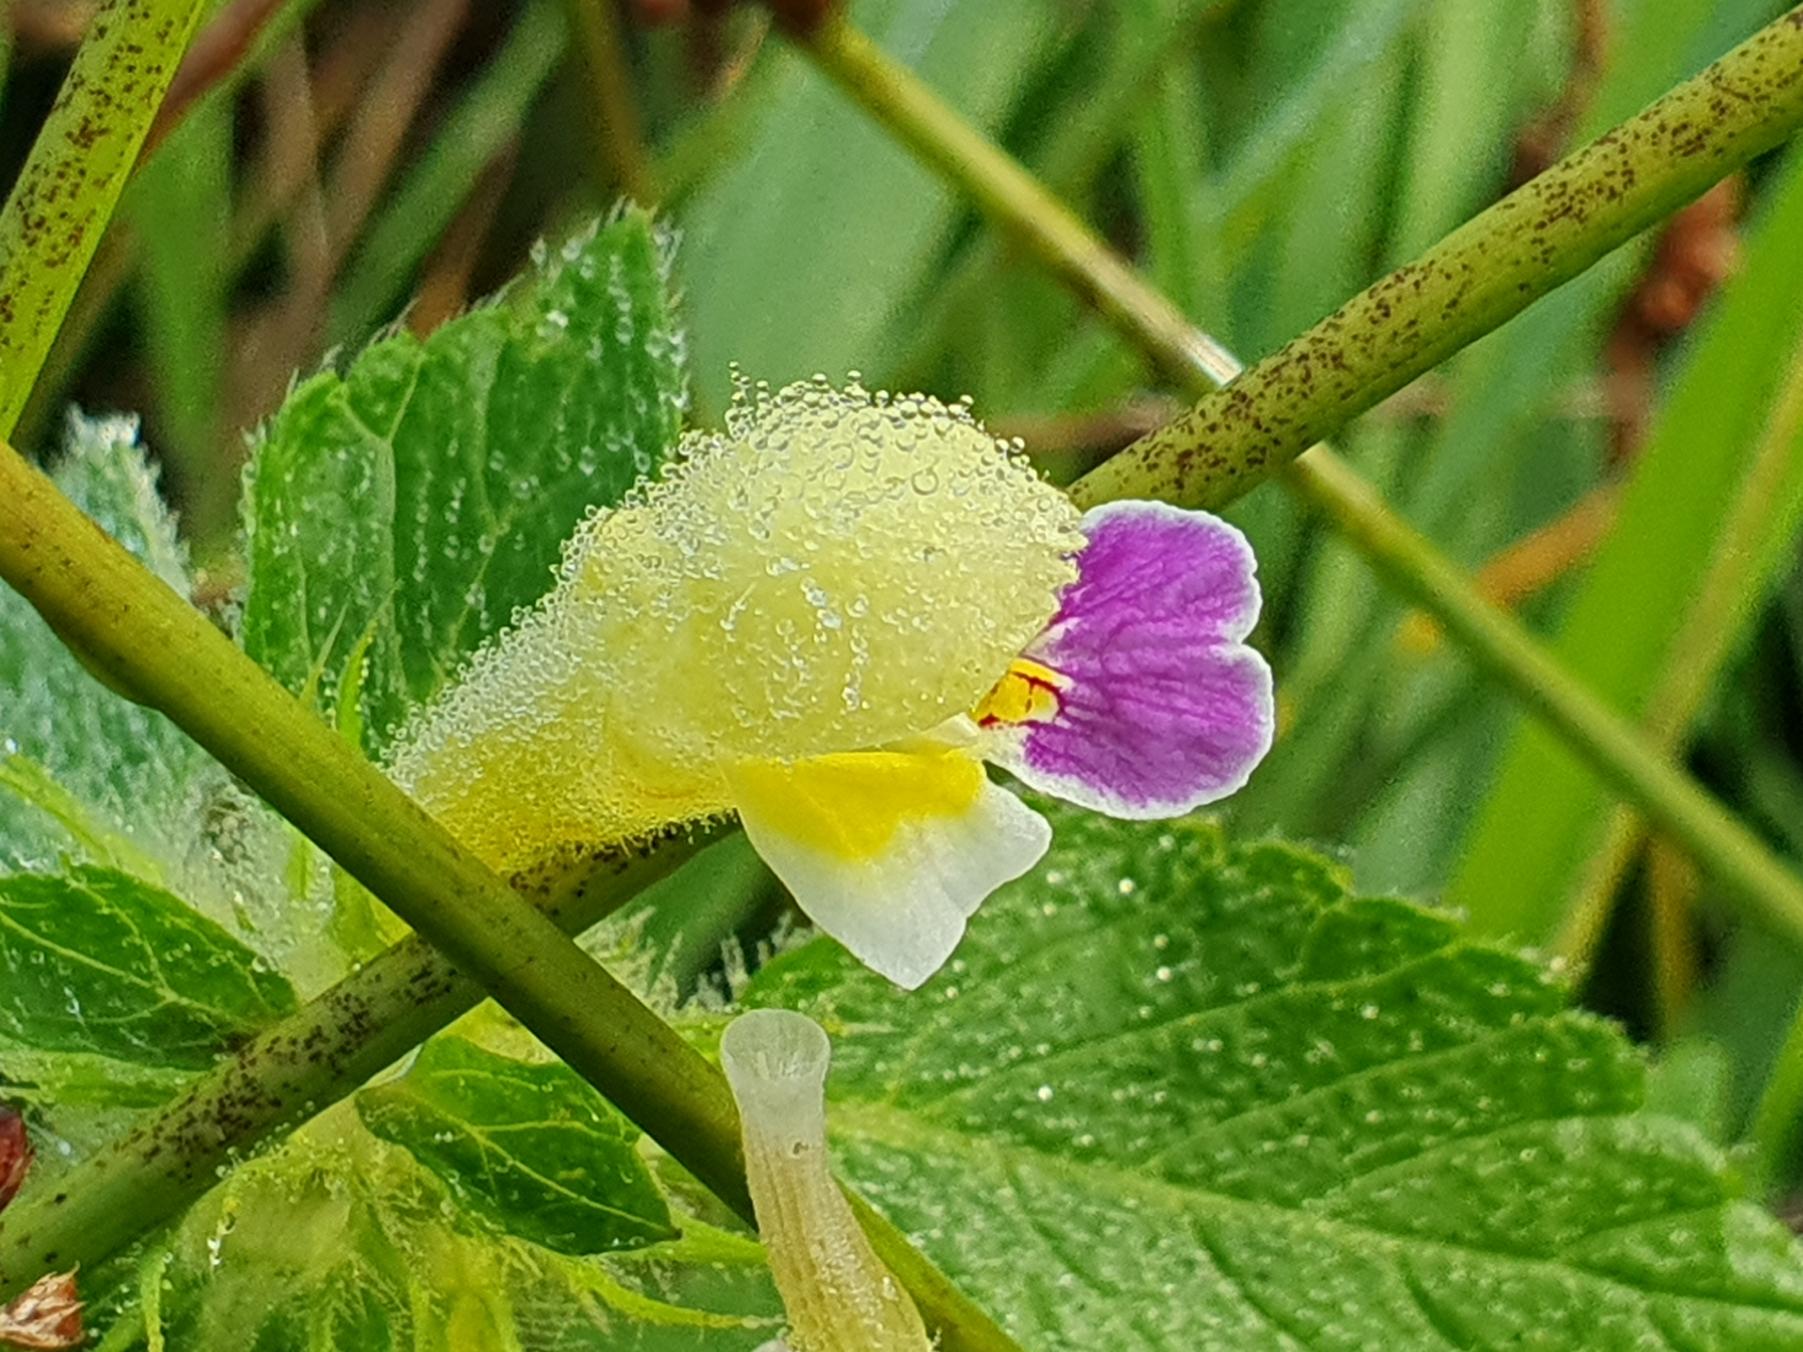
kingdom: Plantae
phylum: Tracheophyta
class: Magnoliopsida
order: Lamiales
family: Lamiaceae
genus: Galeopsis
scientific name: Galeopsis speciosa
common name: Hamp-hanekro
